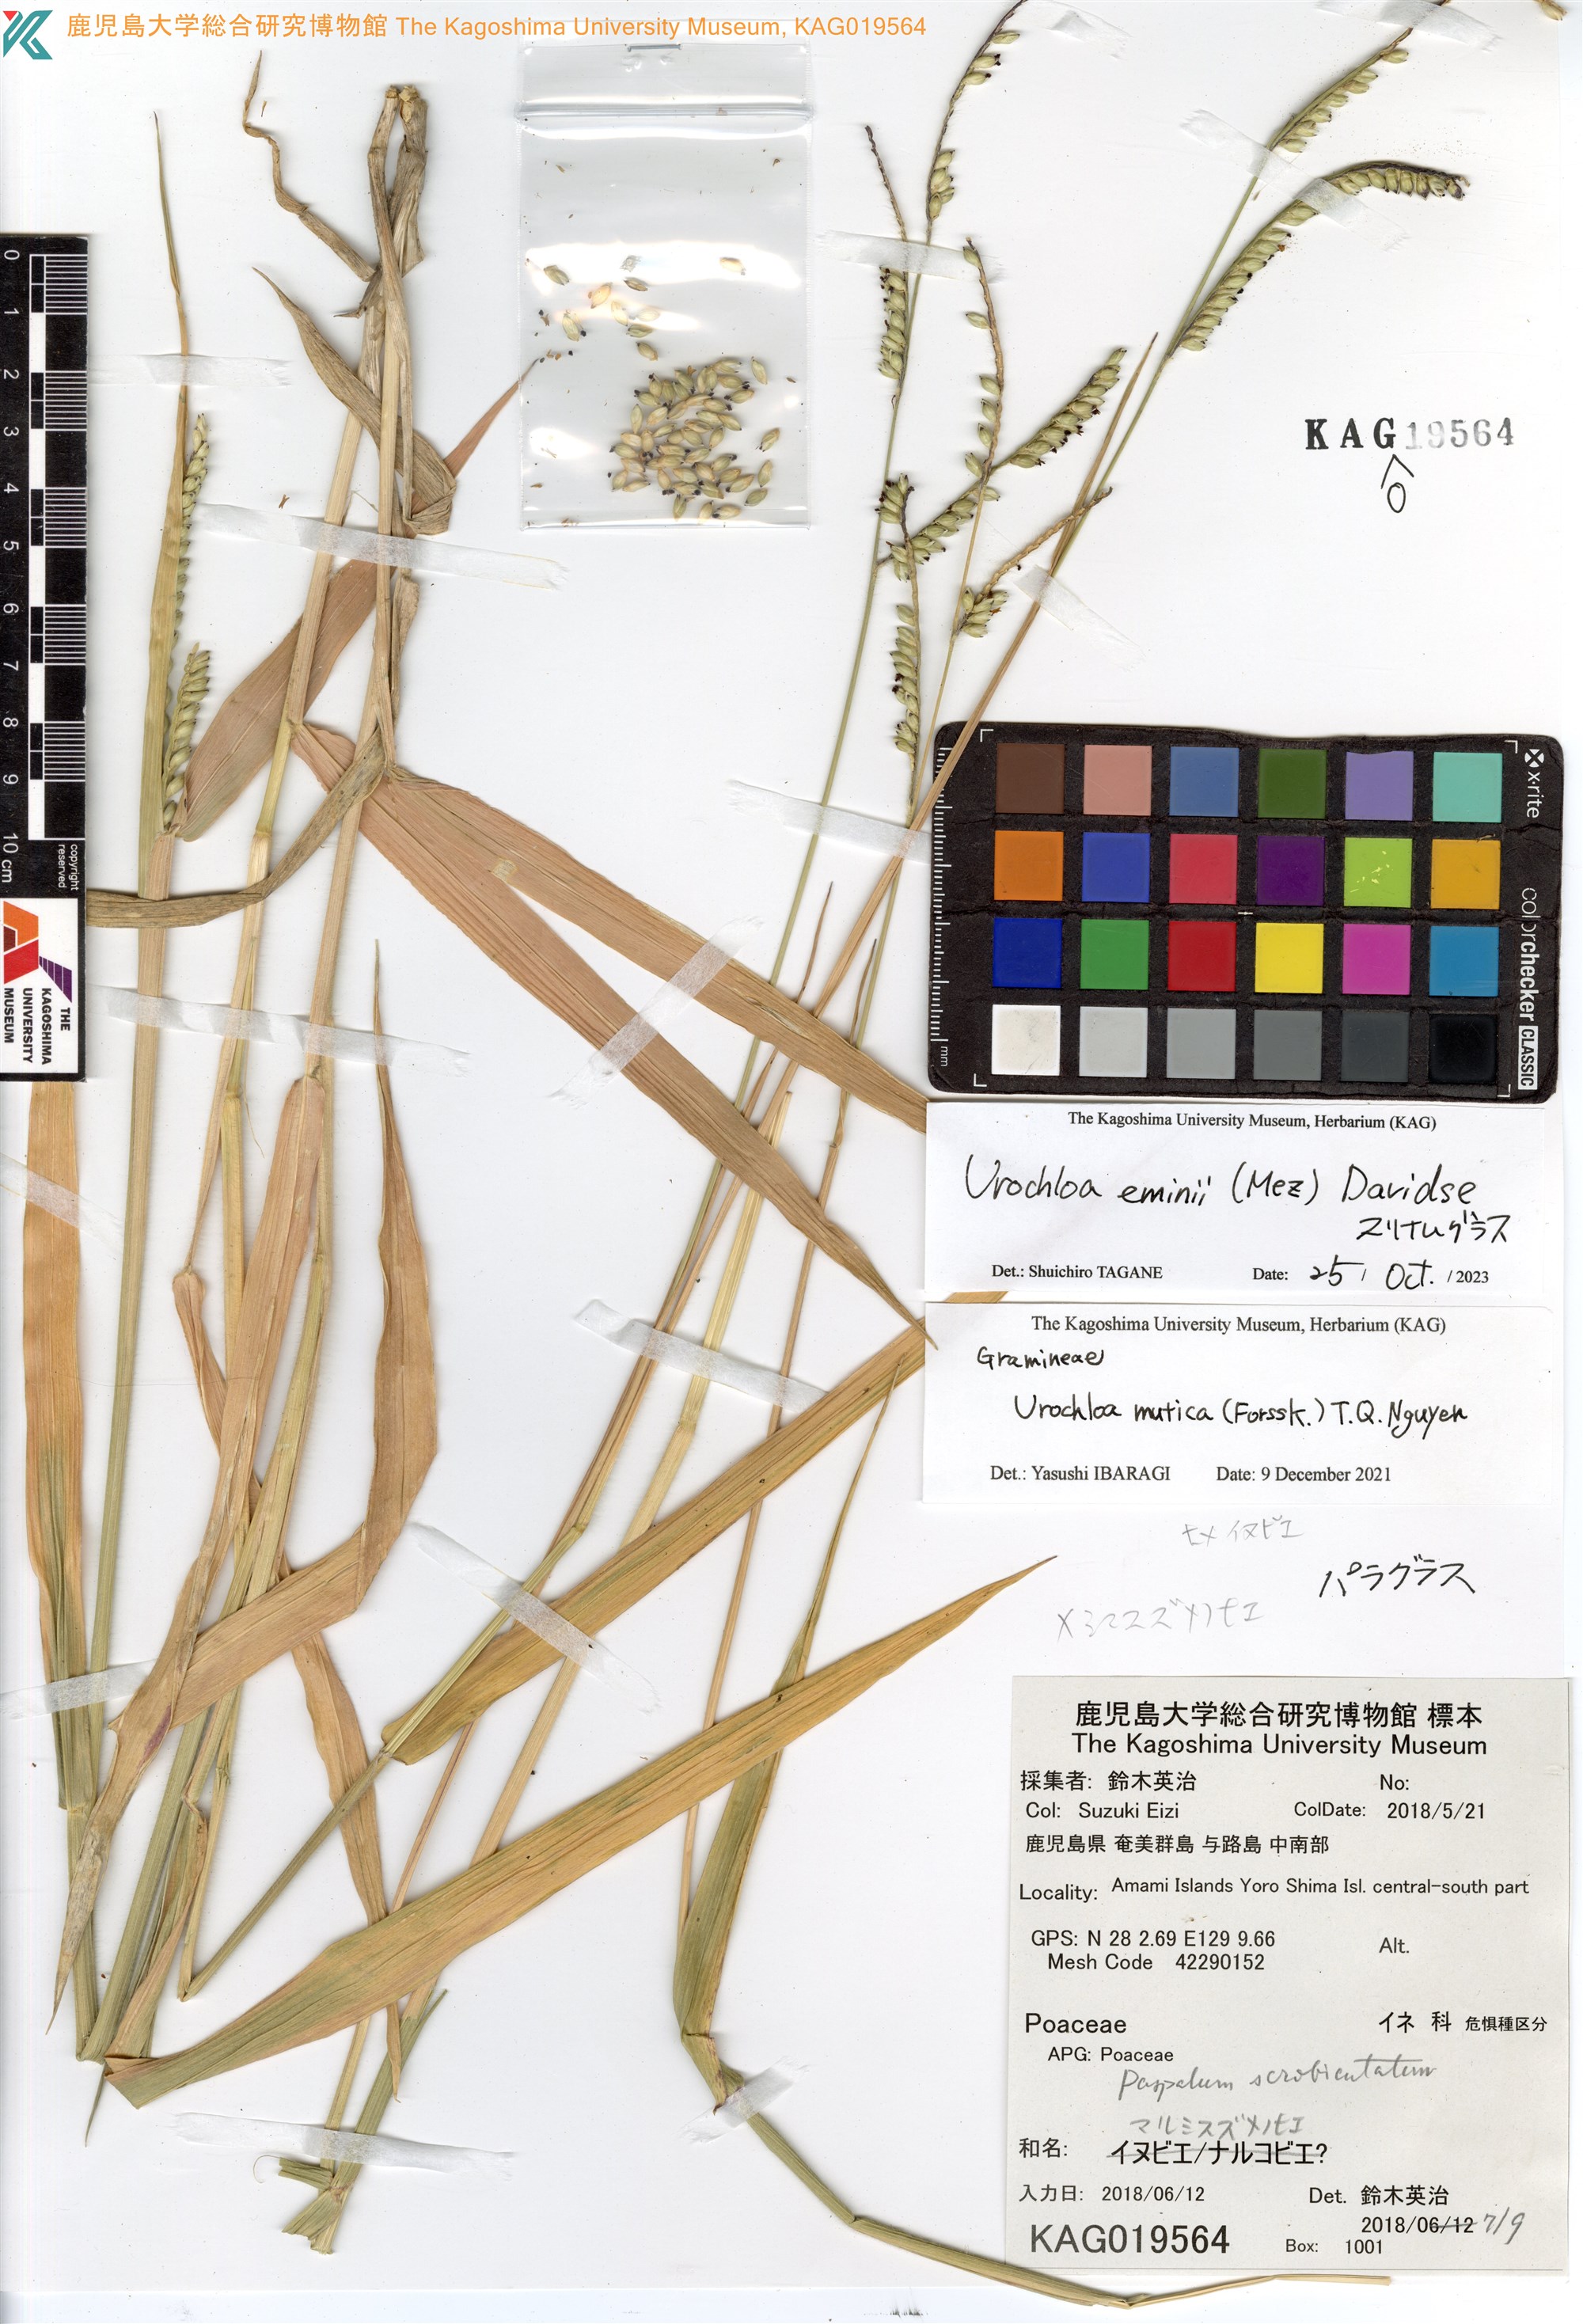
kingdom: Plantae
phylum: Tracheophyta
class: Liliopsida
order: Poales
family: Poaceae
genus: Paspalum
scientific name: Paspalum scrobiculatum
